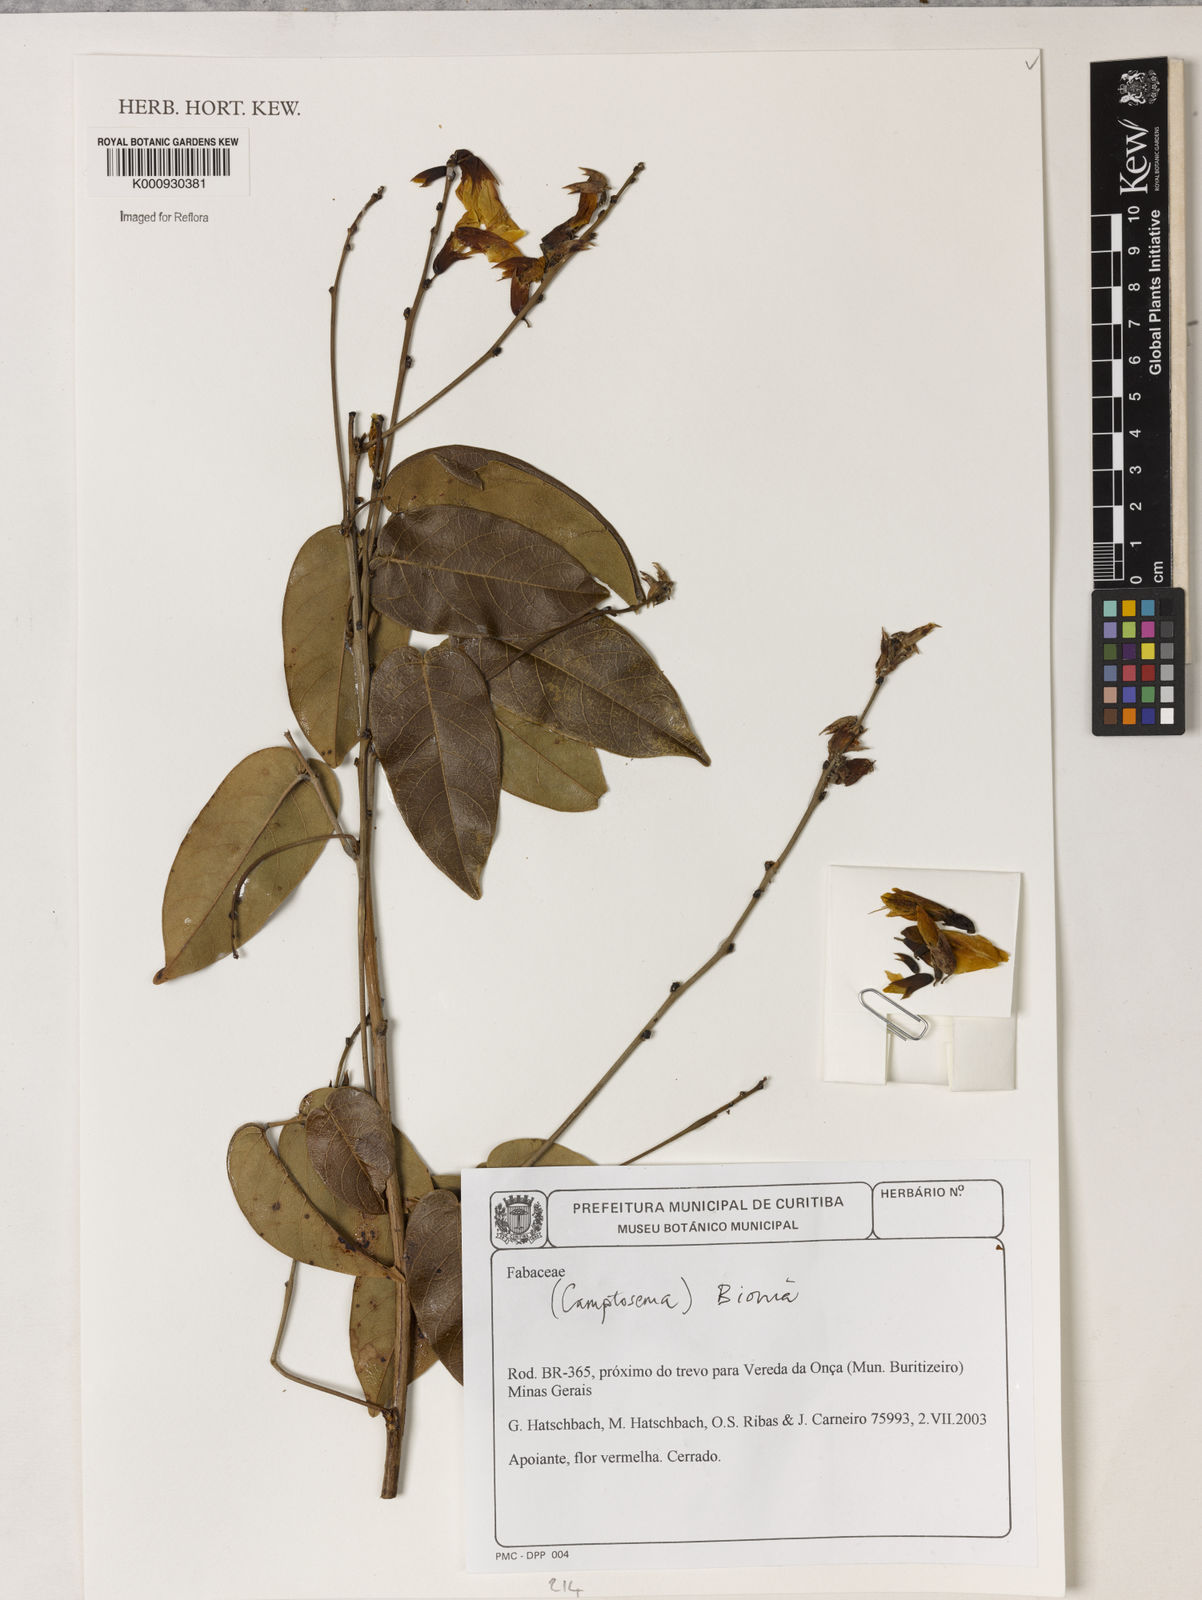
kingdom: Plantae
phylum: Tracheophyta
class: Magnoliopsida
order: Fabales
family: Fabaceae
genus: Camptosema
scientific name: Camptosema
